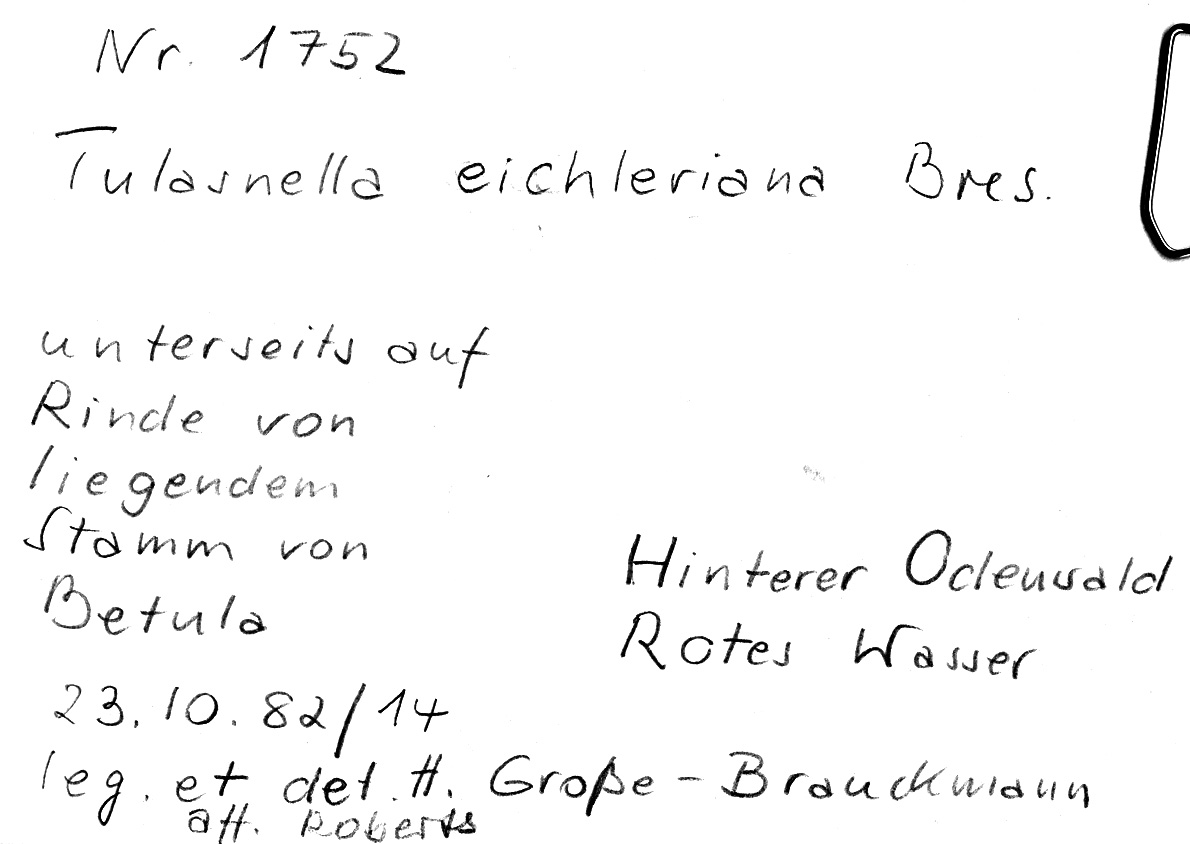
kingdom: Fungi
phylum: Basidiomycota
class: Agaricomycetes
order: Cantharellales
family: Tulasnellaceae
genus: Tulasnella
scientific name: Tulasnella eichleriana
